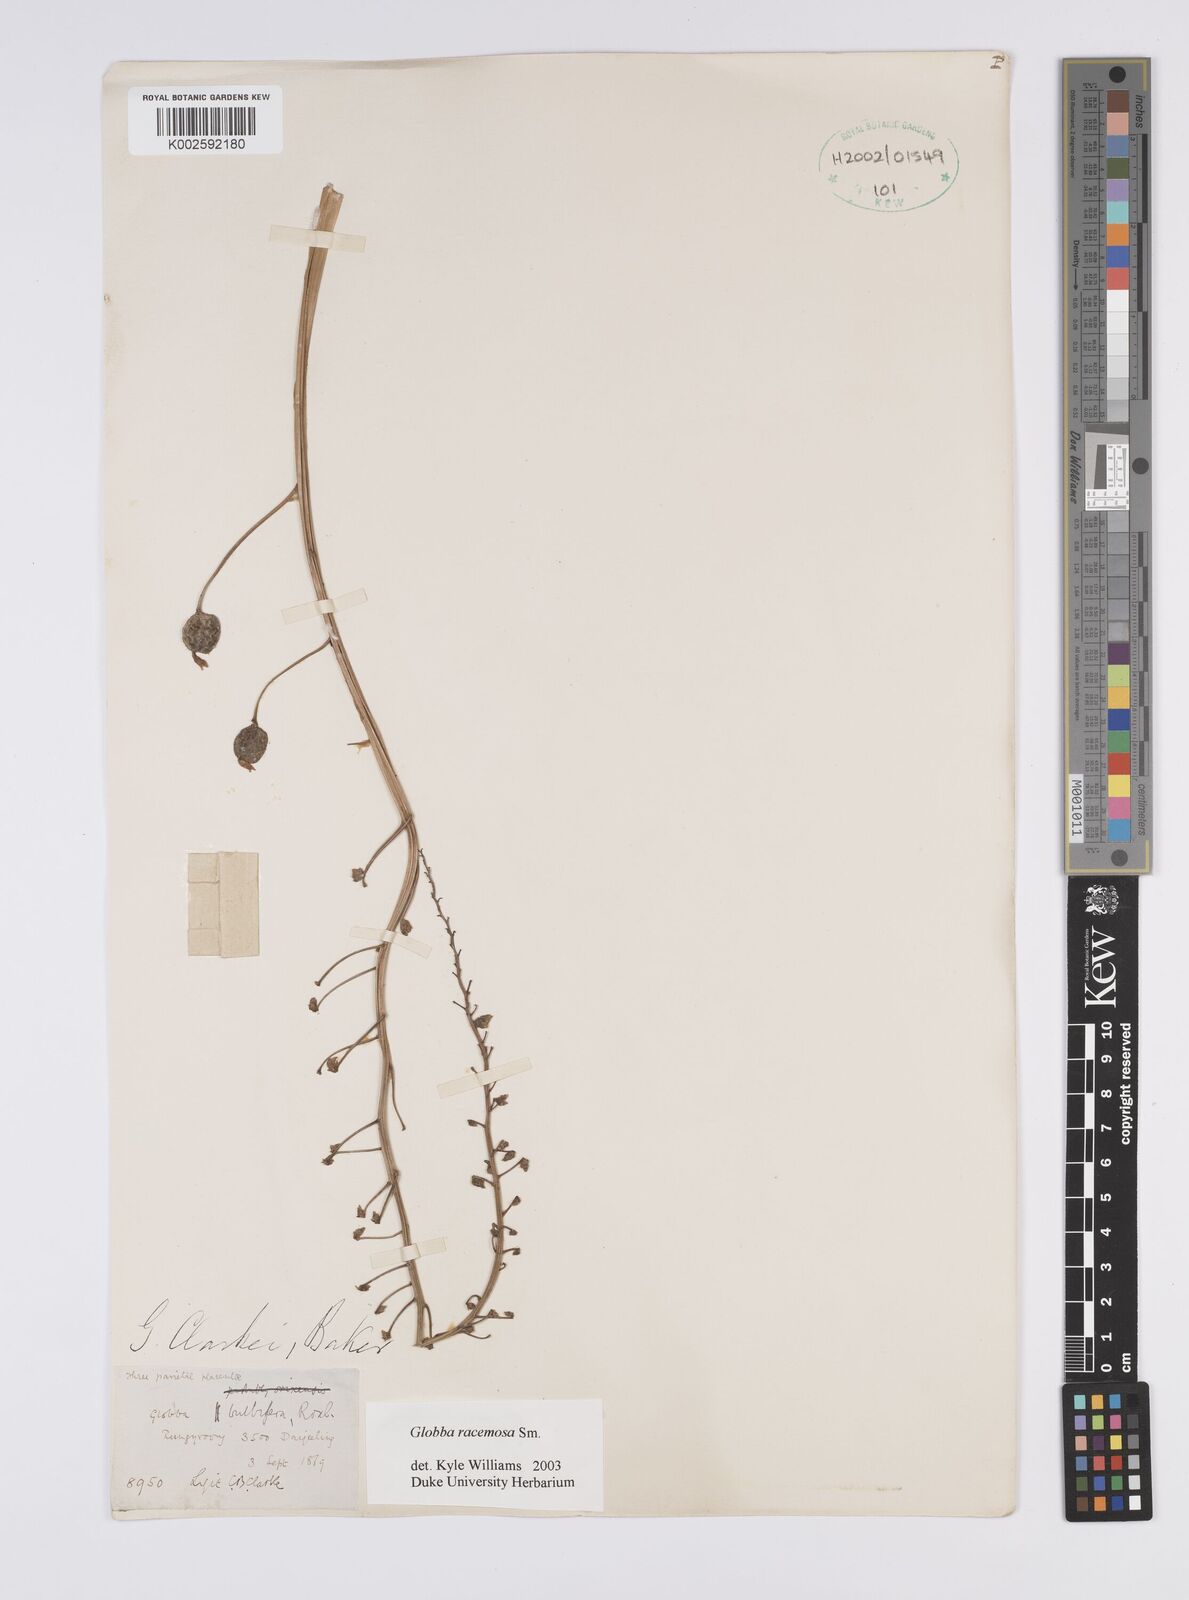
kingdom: Plantae
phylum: Tracheophyta
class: Liliopsida
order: Zingiberales
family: Zingiberaceae
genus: Globba
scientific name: Globba racemosa
